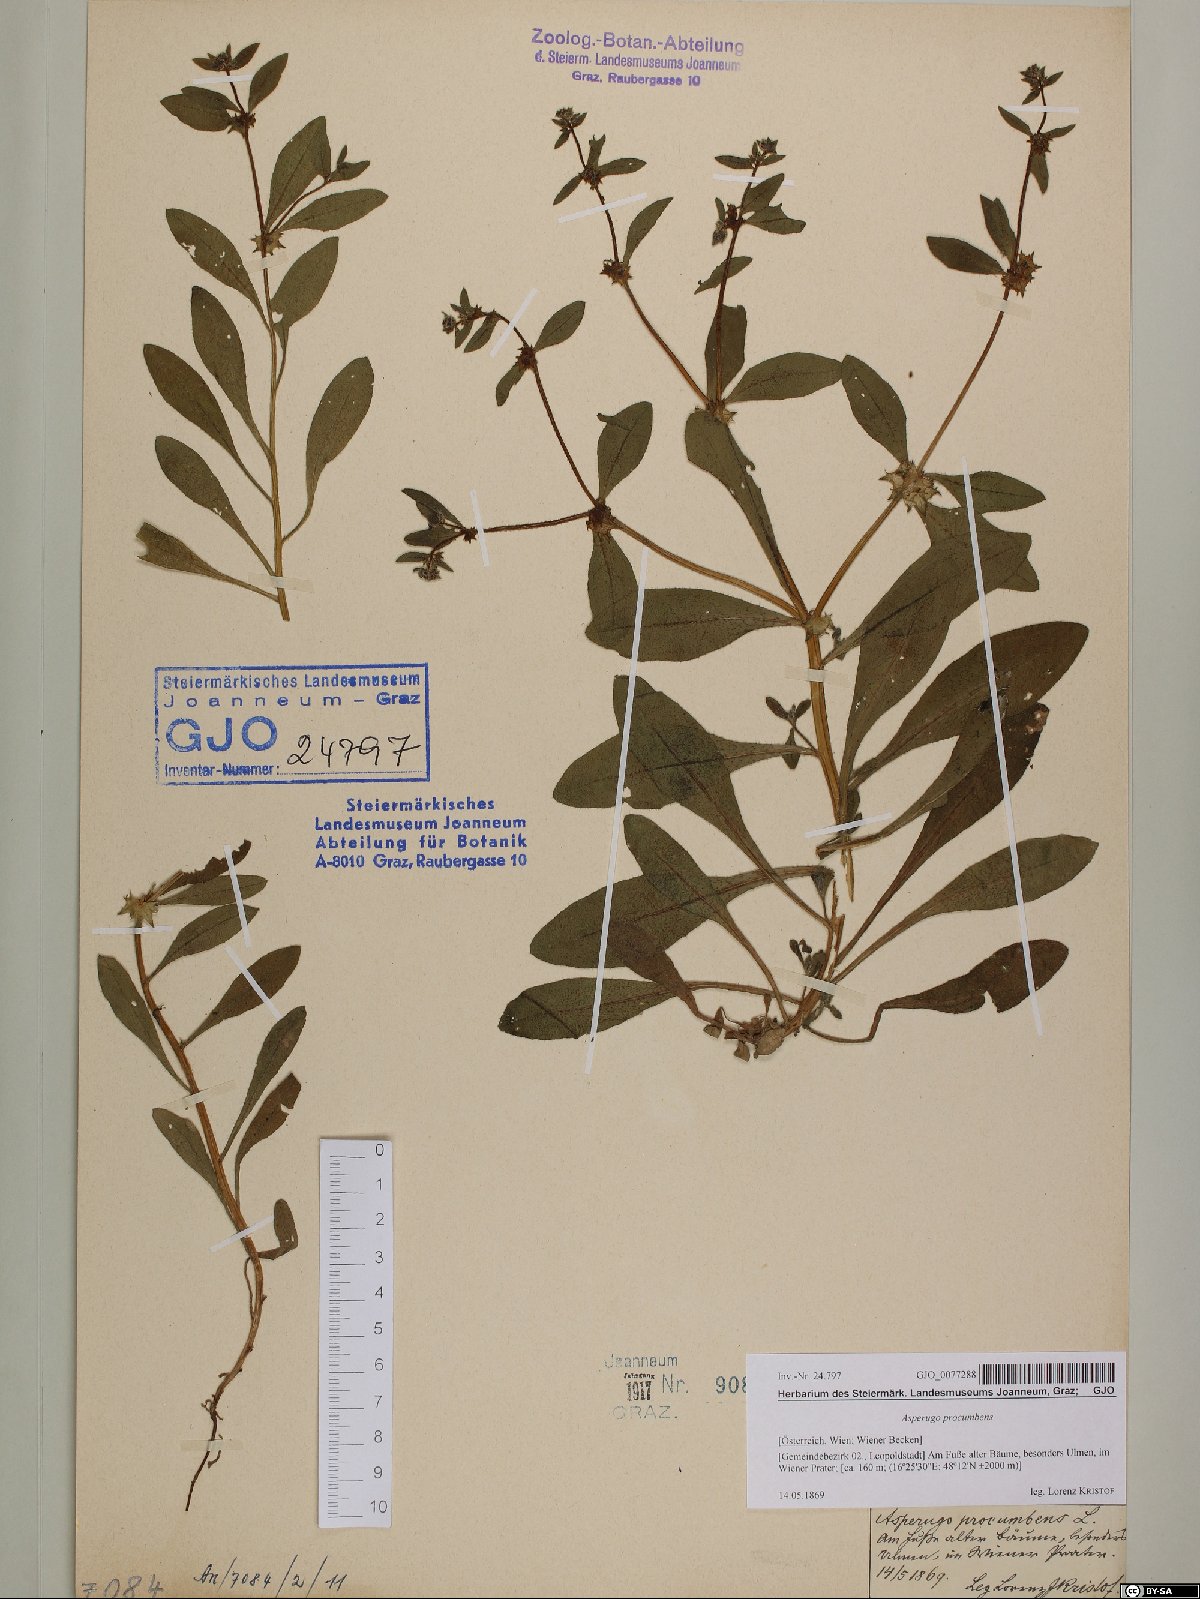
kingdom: Plantae
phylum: Tracheophyta
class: Magnoliopsida
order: Boraginales
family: Boraginaceae
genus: Asperugo
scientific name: Asperugo procumbens
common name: Madwort
